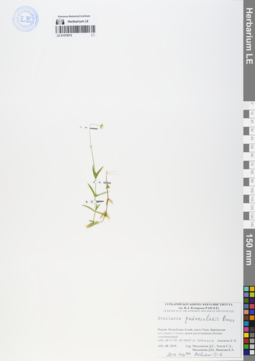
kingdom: Plantae
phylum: Tracheophyta
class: Magnoliopsida
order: Caryophyllales
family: Caryophyllaceae
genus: Stellaria
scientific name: Stellaria peduncularis
